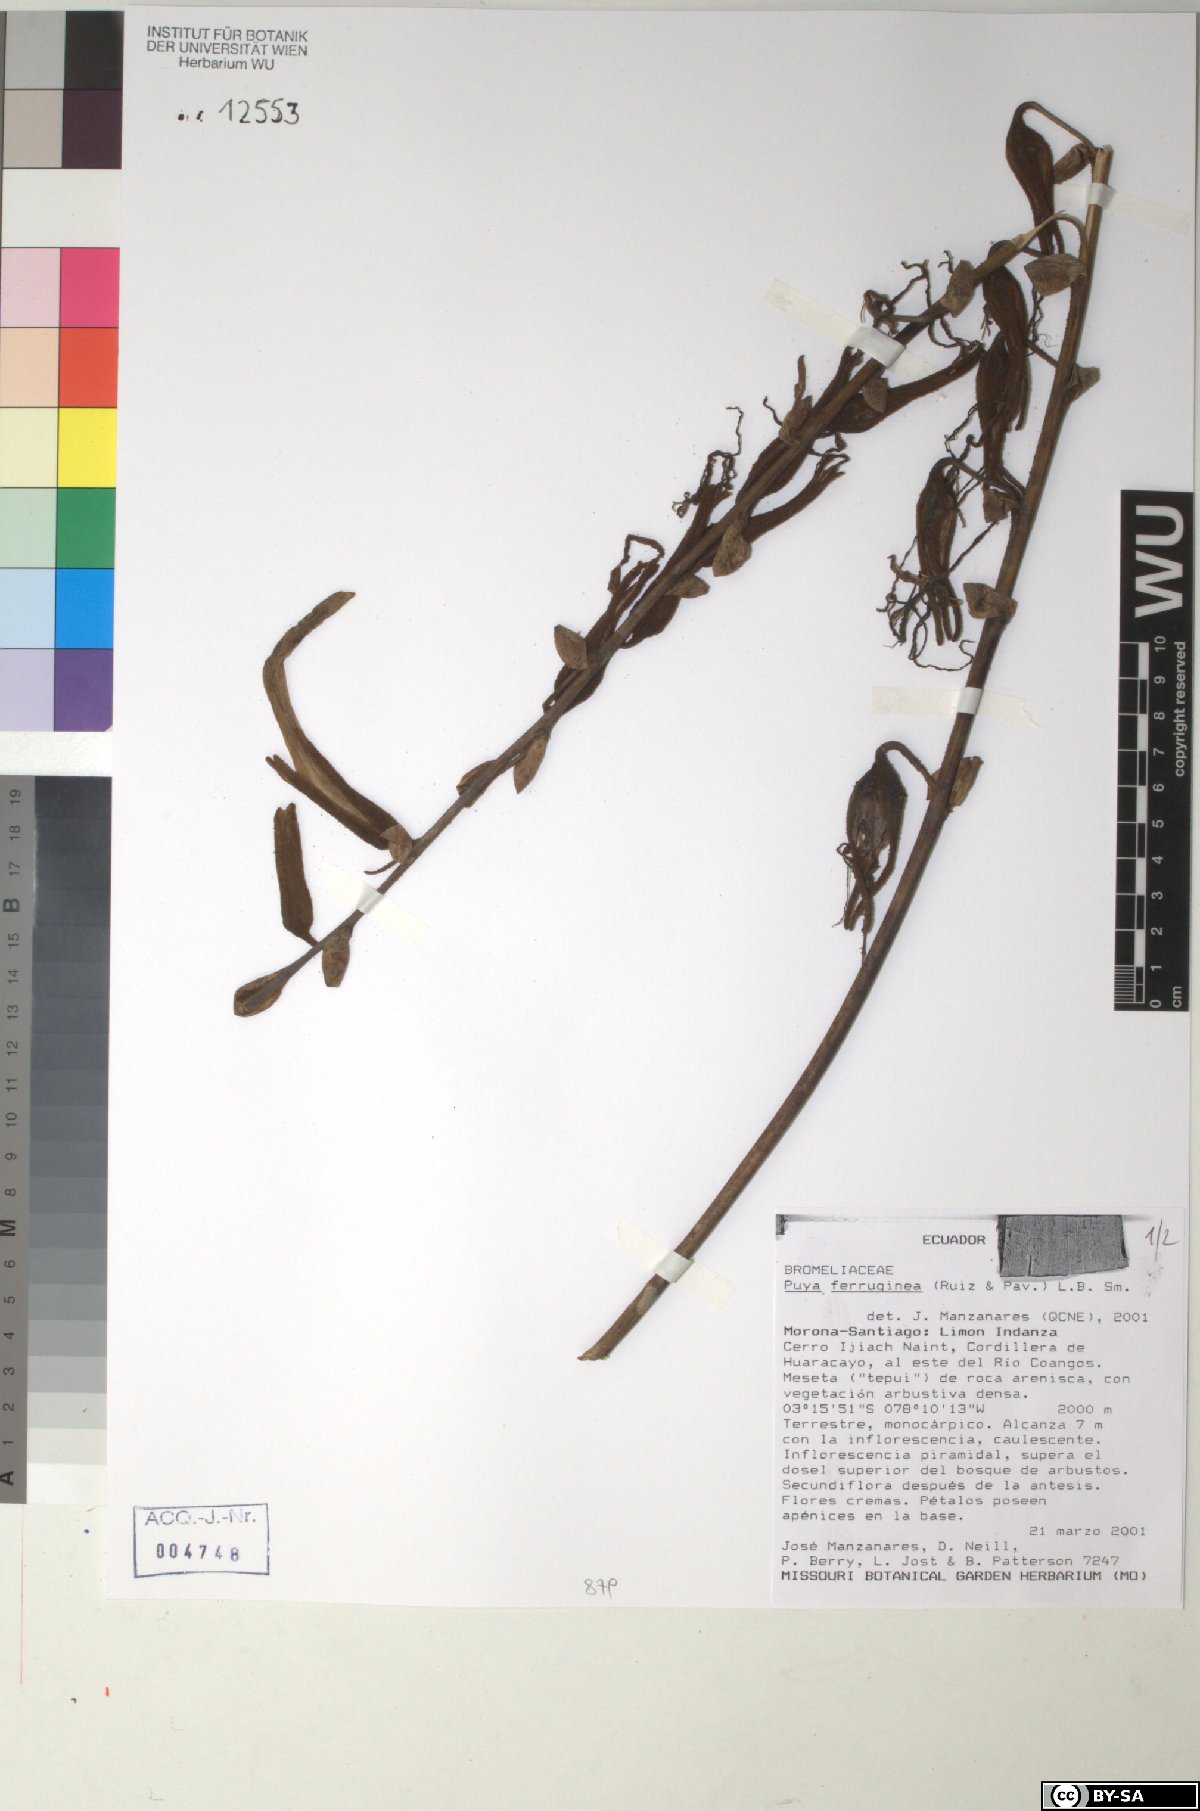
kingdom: Plantae
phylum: Tracheophyta
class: Liliopsida
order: Poales
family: Bromeliaceae
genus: Puya
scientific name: Puya ferruginea
